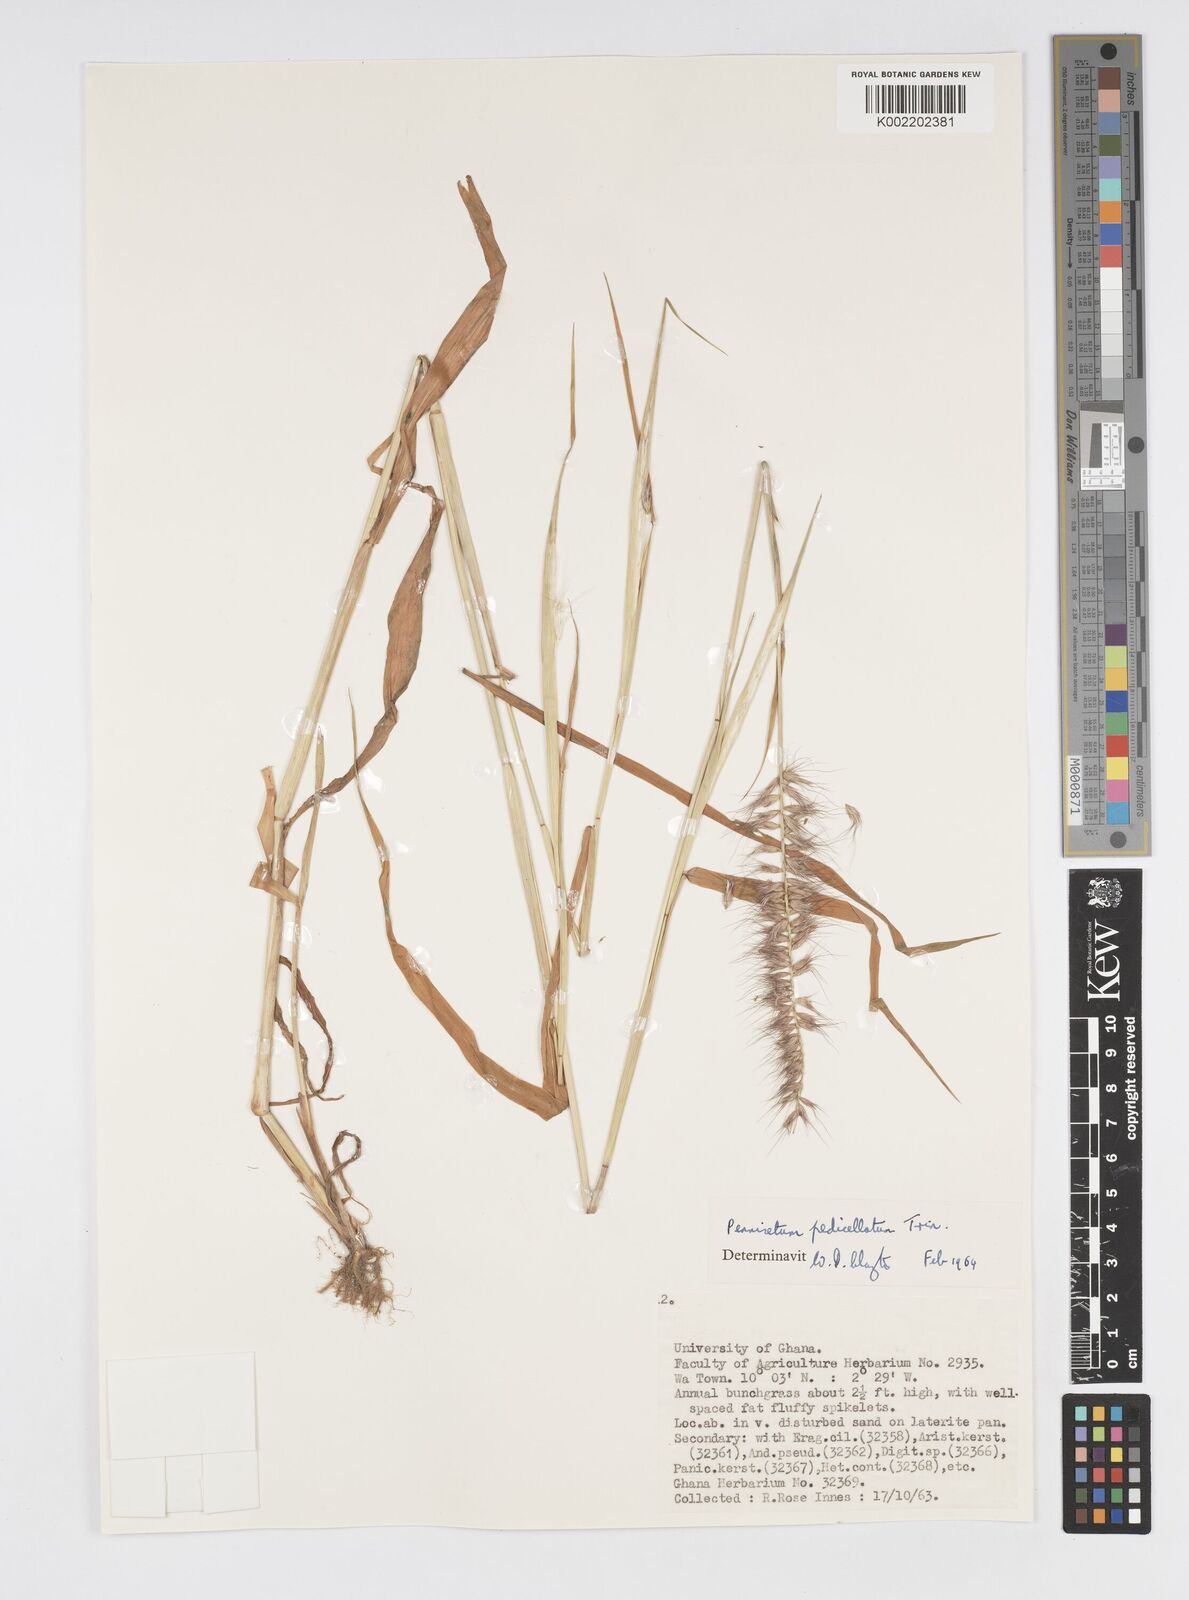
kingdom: Plantae
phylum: Tracheophyta
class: Liliopsida
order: Poales
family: Poaceae
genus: Cenchrus
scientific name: Cenchrus pedicellatus
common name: Hairy fountain grass
